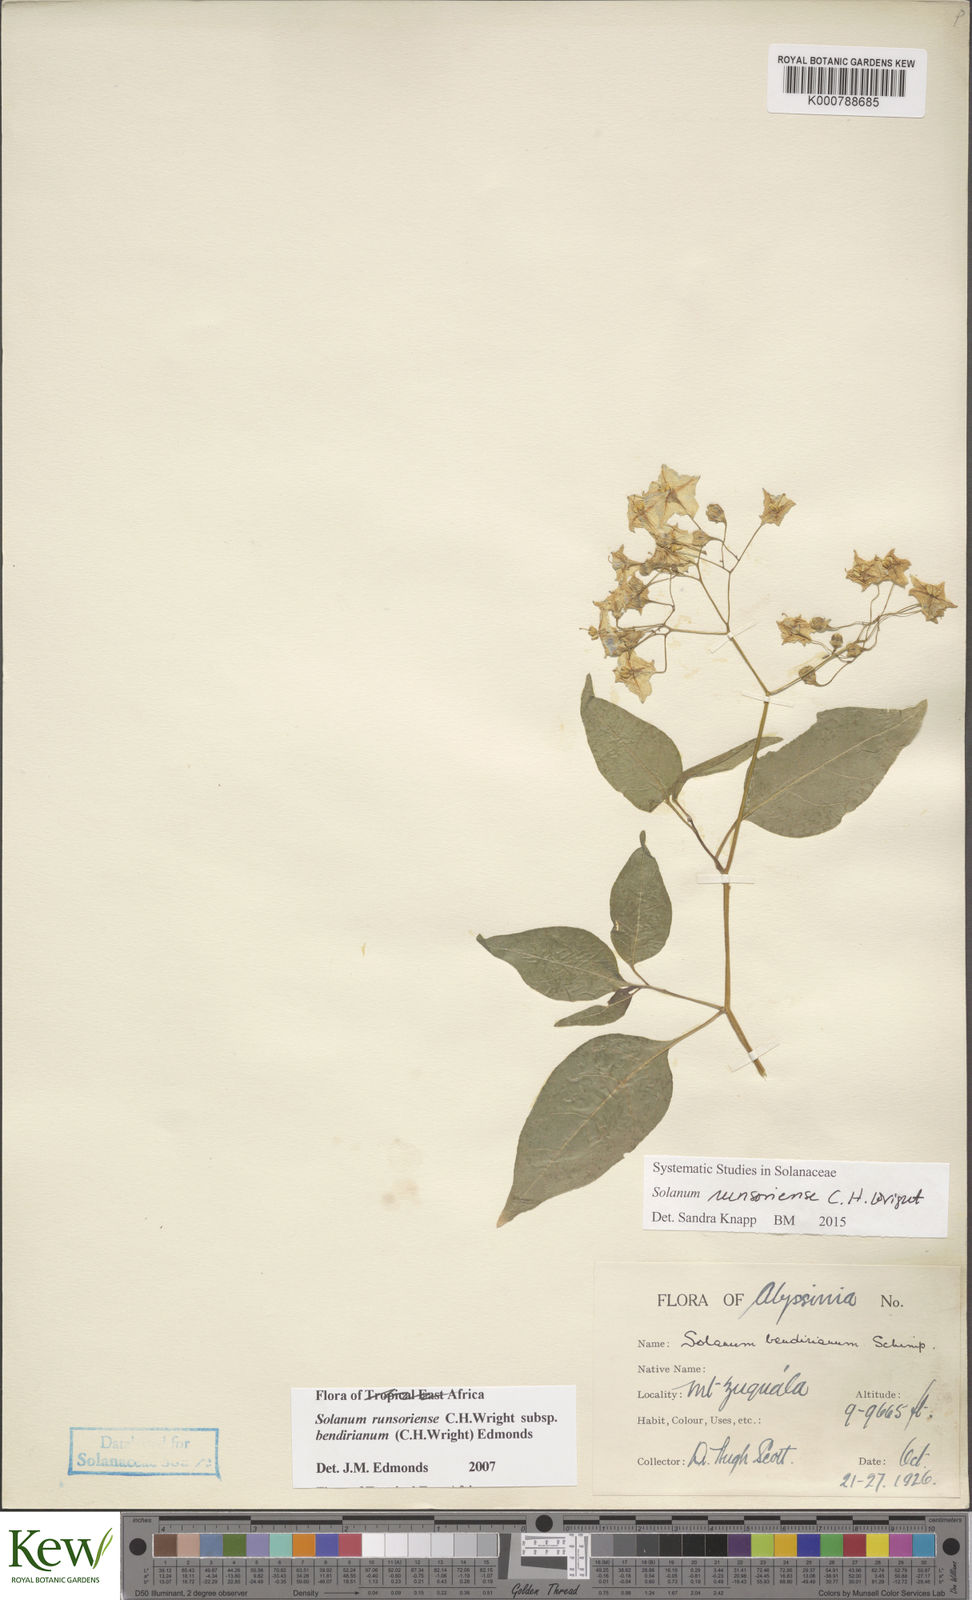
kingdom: Plantae
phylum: Tracheophyta
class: Magnoliopsida
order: Solanales
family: Solanaceae
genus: Solanum
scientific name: Solanum runsoriense
